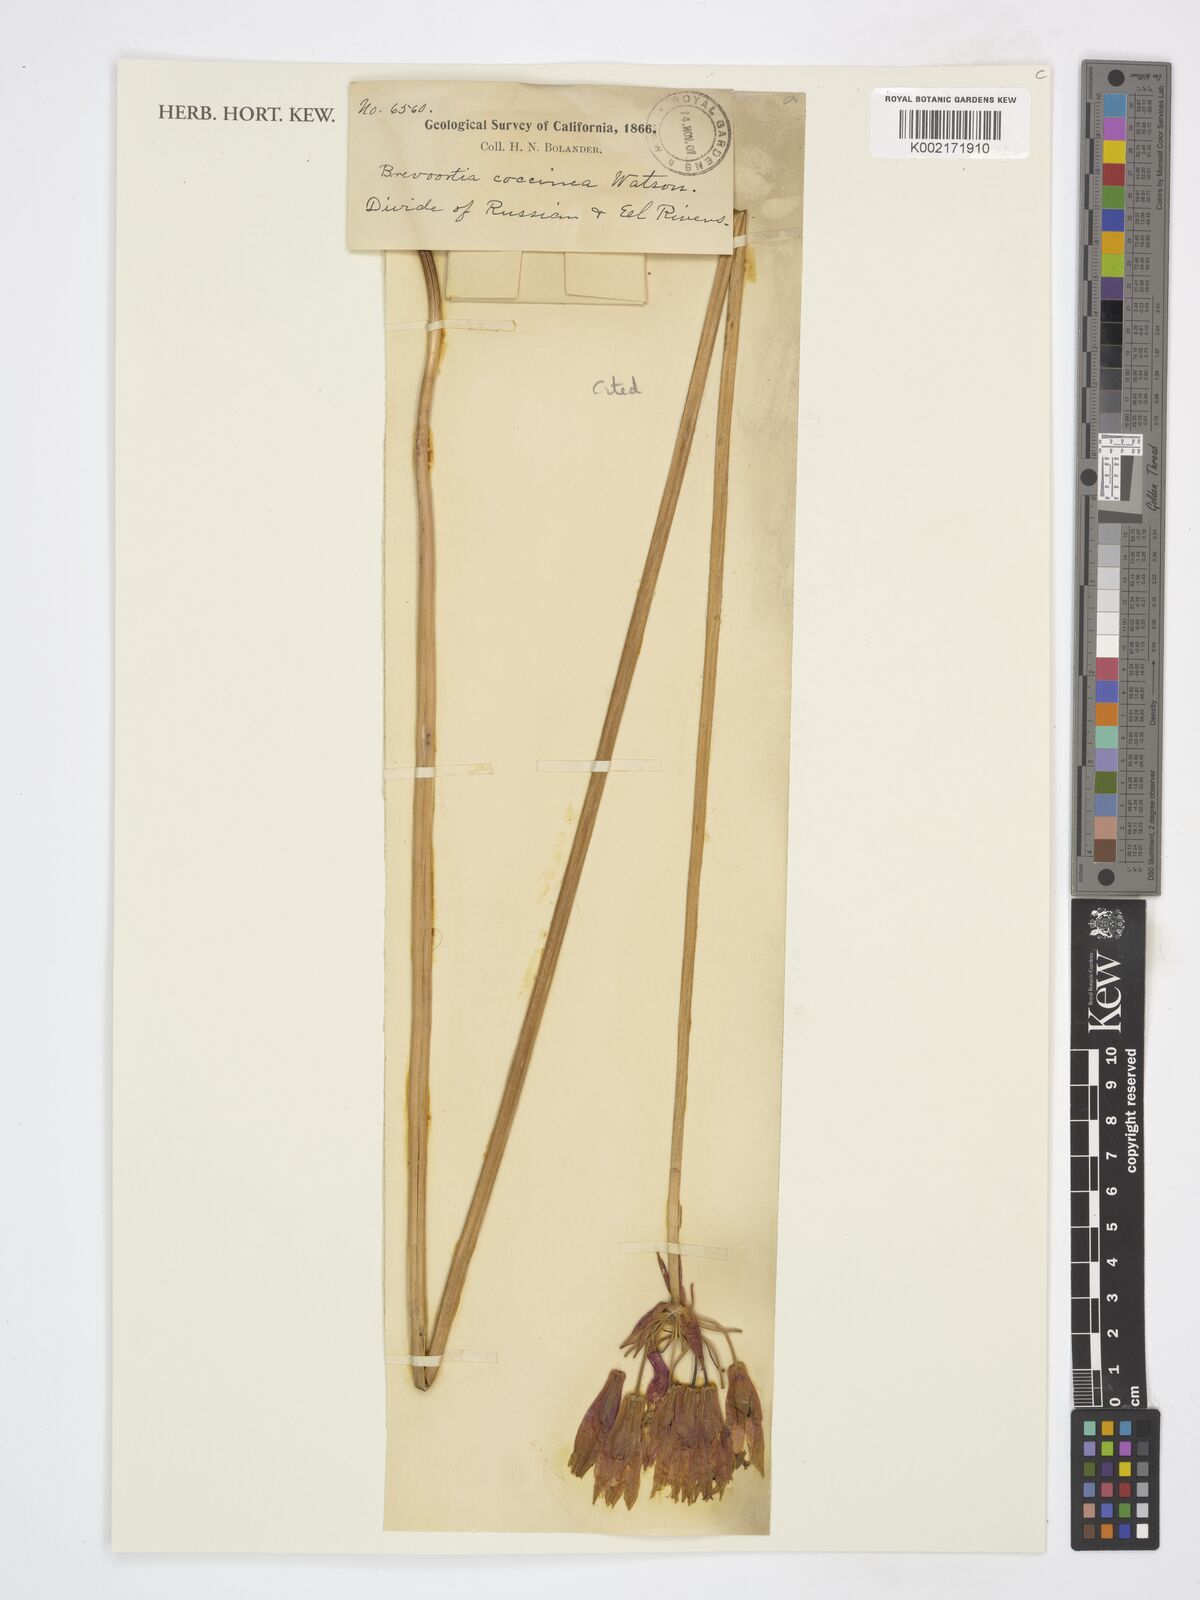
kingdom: Plantae
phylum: Tracheophyta
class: Liliopsida
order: Asparagales
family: Asparagaceae
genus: Dichelostemma
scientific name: Dichelostemma ida-maia
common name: Firecracker-flower
